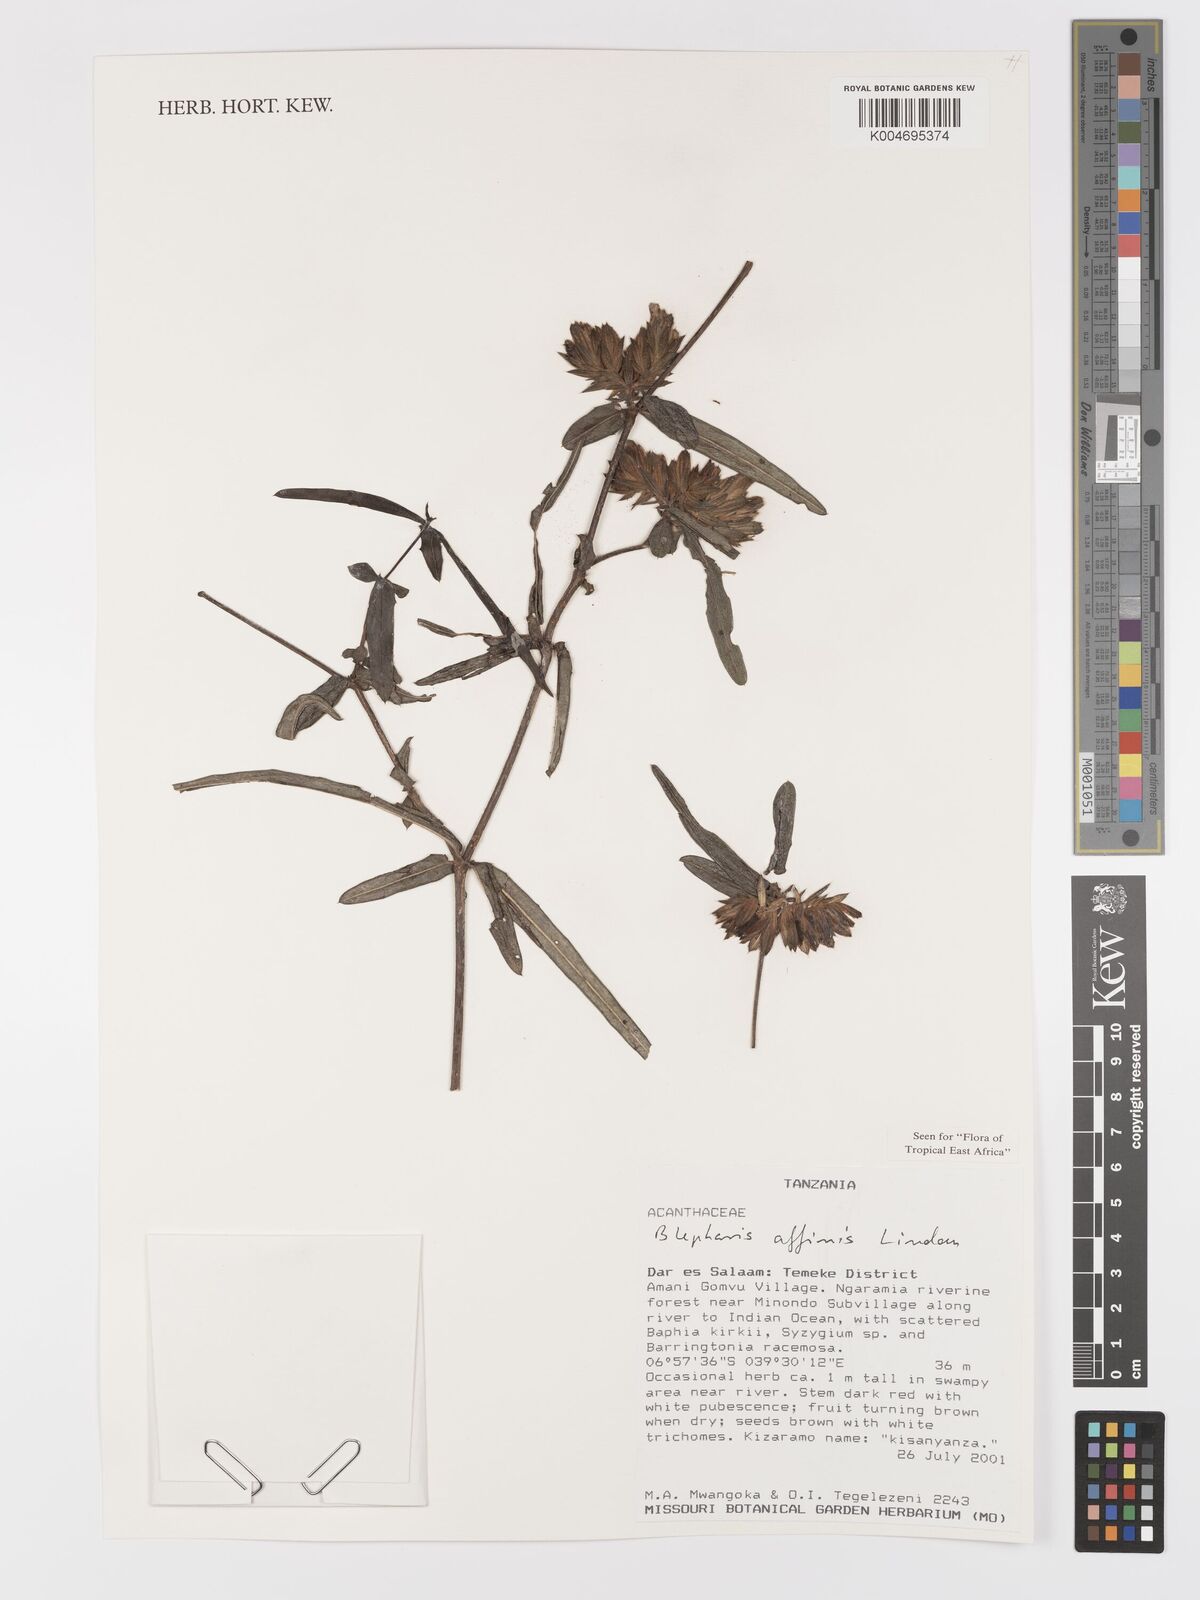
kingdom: Plantae
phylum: Tracheophyta
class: Magnoliopsida
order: Lamiales
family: Acanthaceae
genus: Blepharis
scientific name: Blepharis affinis
